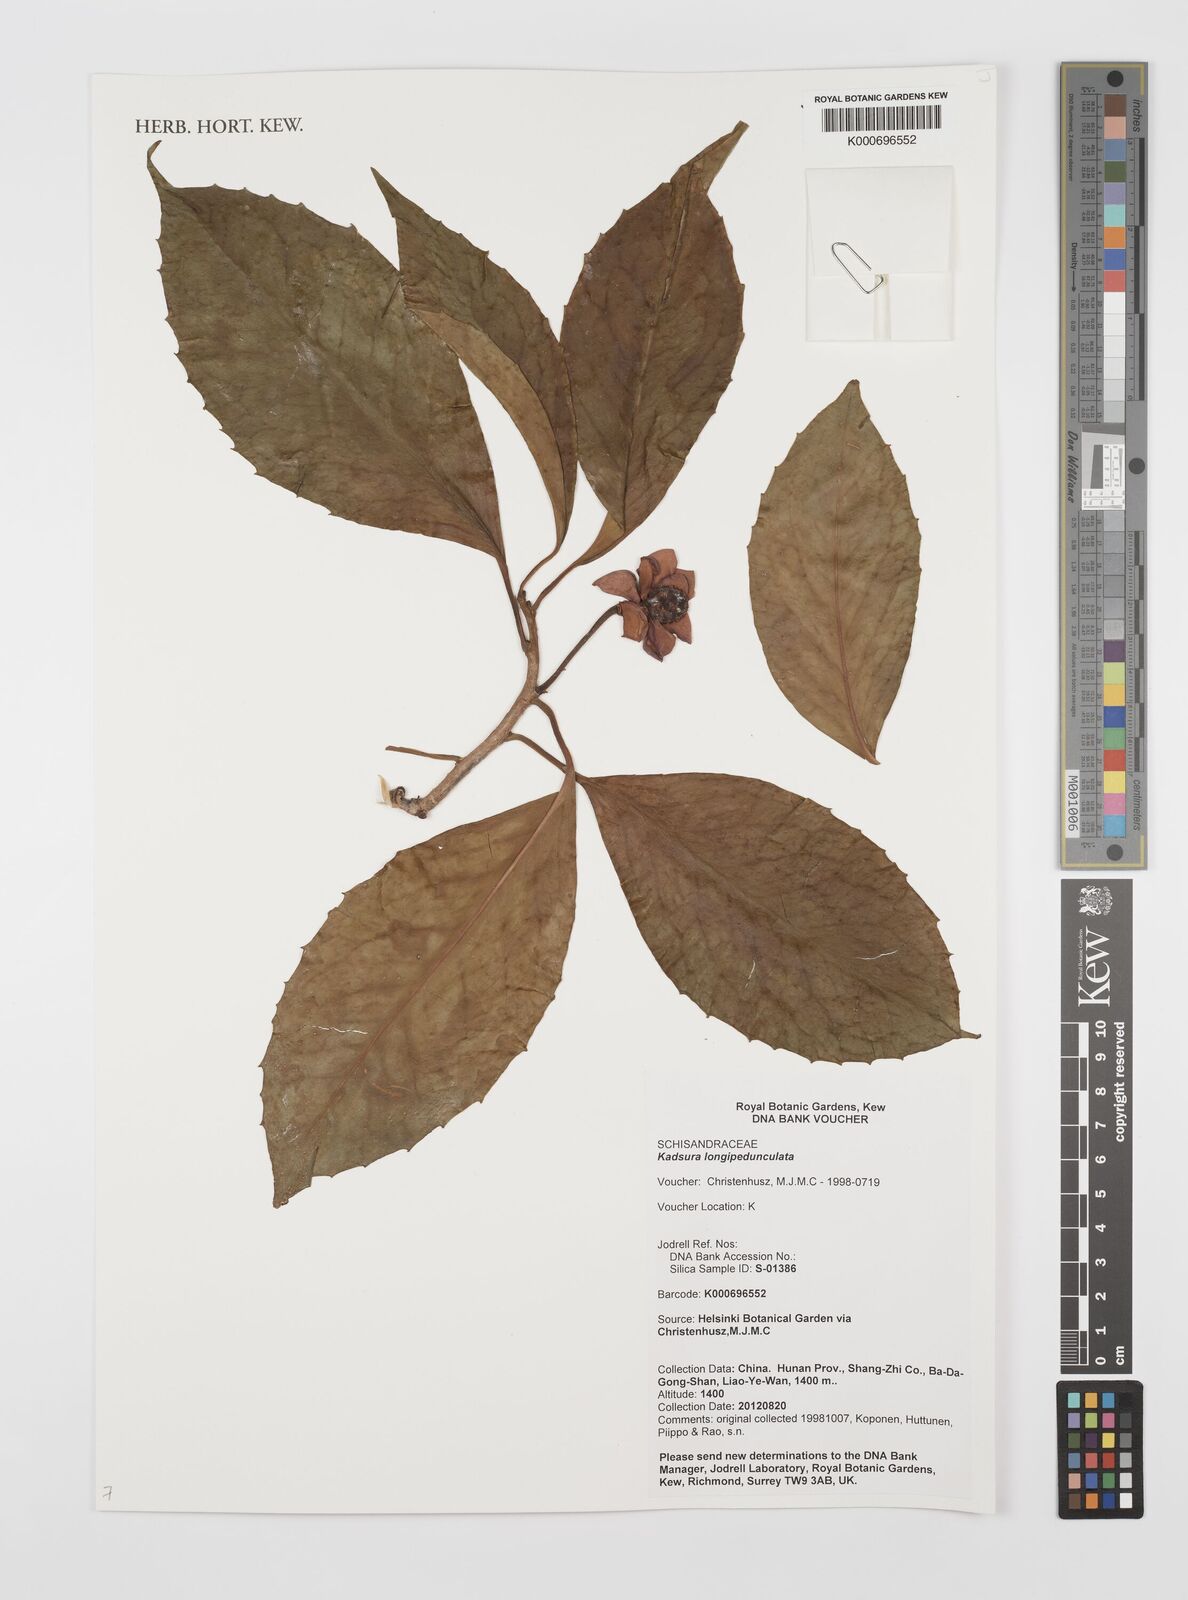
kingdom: Plantae
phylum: Tracheophyta
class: Magnoliopsida
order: Austrobaileyales
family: Schisandraceae
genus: Kadsura
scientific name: Kadsura longipedunculata
